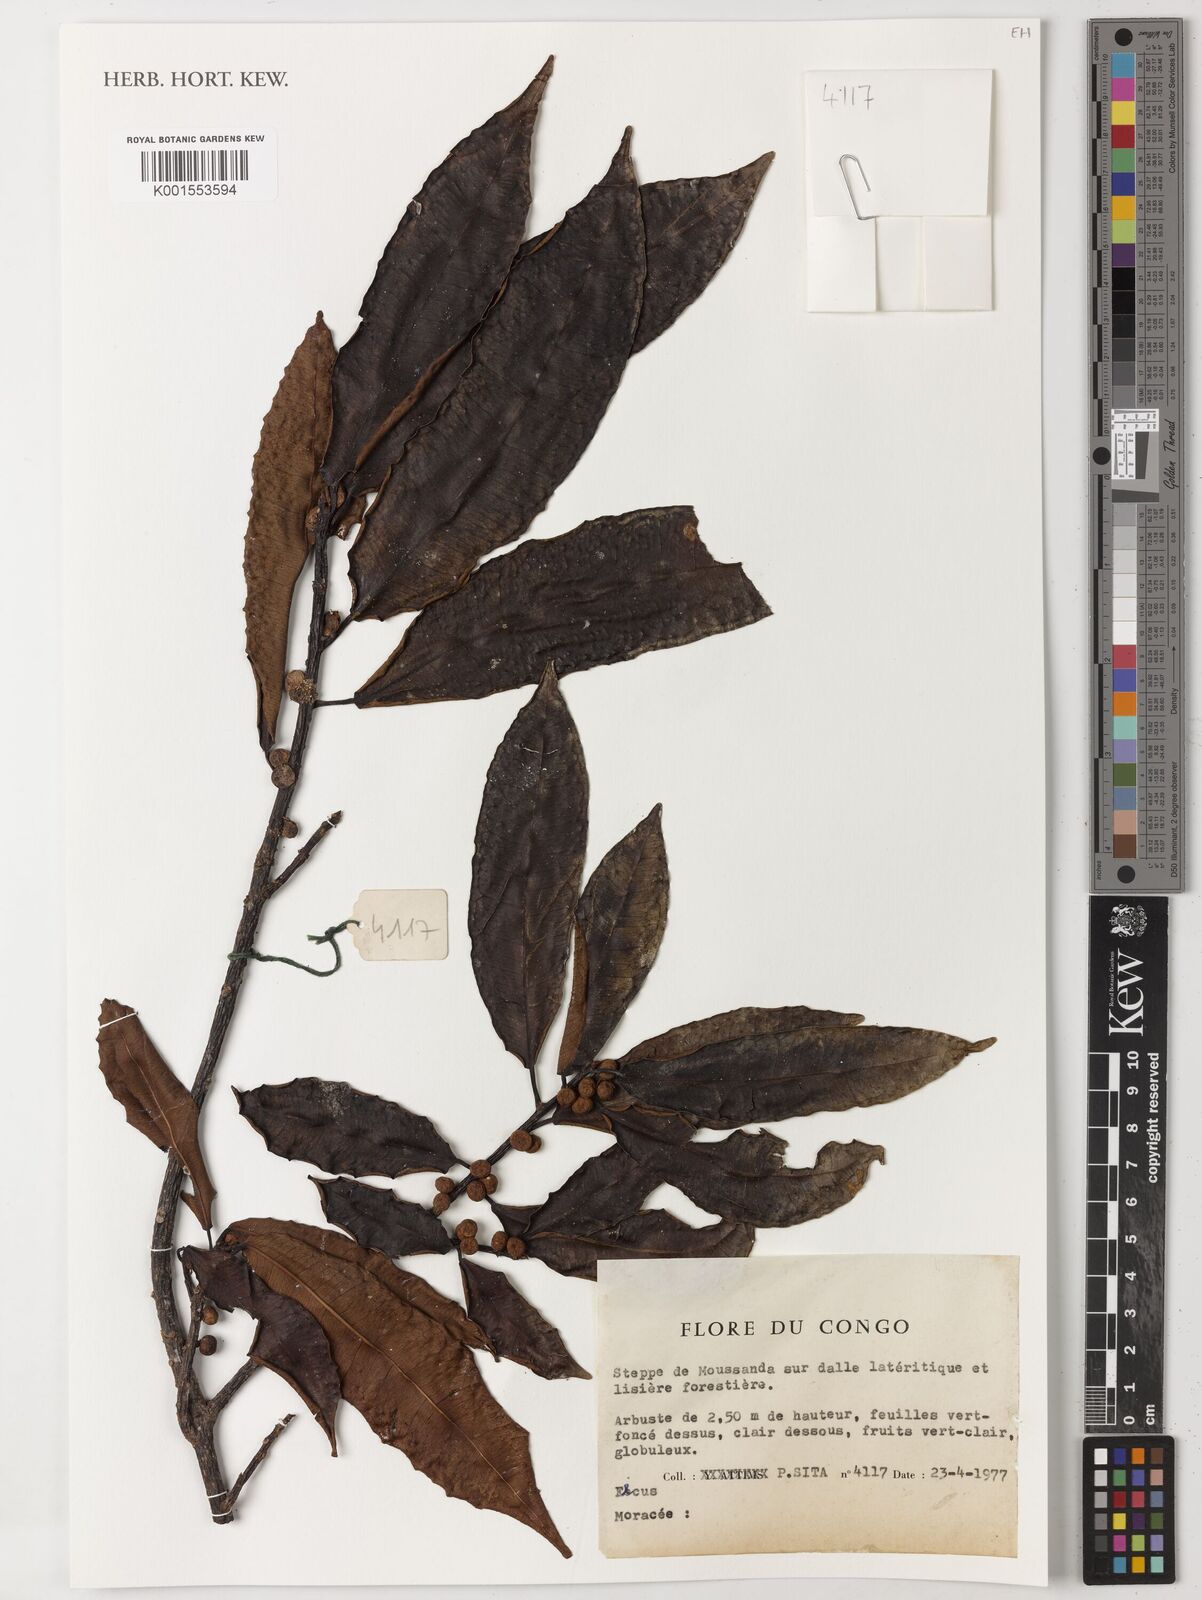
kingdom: Plantae
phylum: Tracheophyta
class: Magnoliopsida
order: Rosales
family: Moraceae
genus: Ficus
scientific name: Ficus
